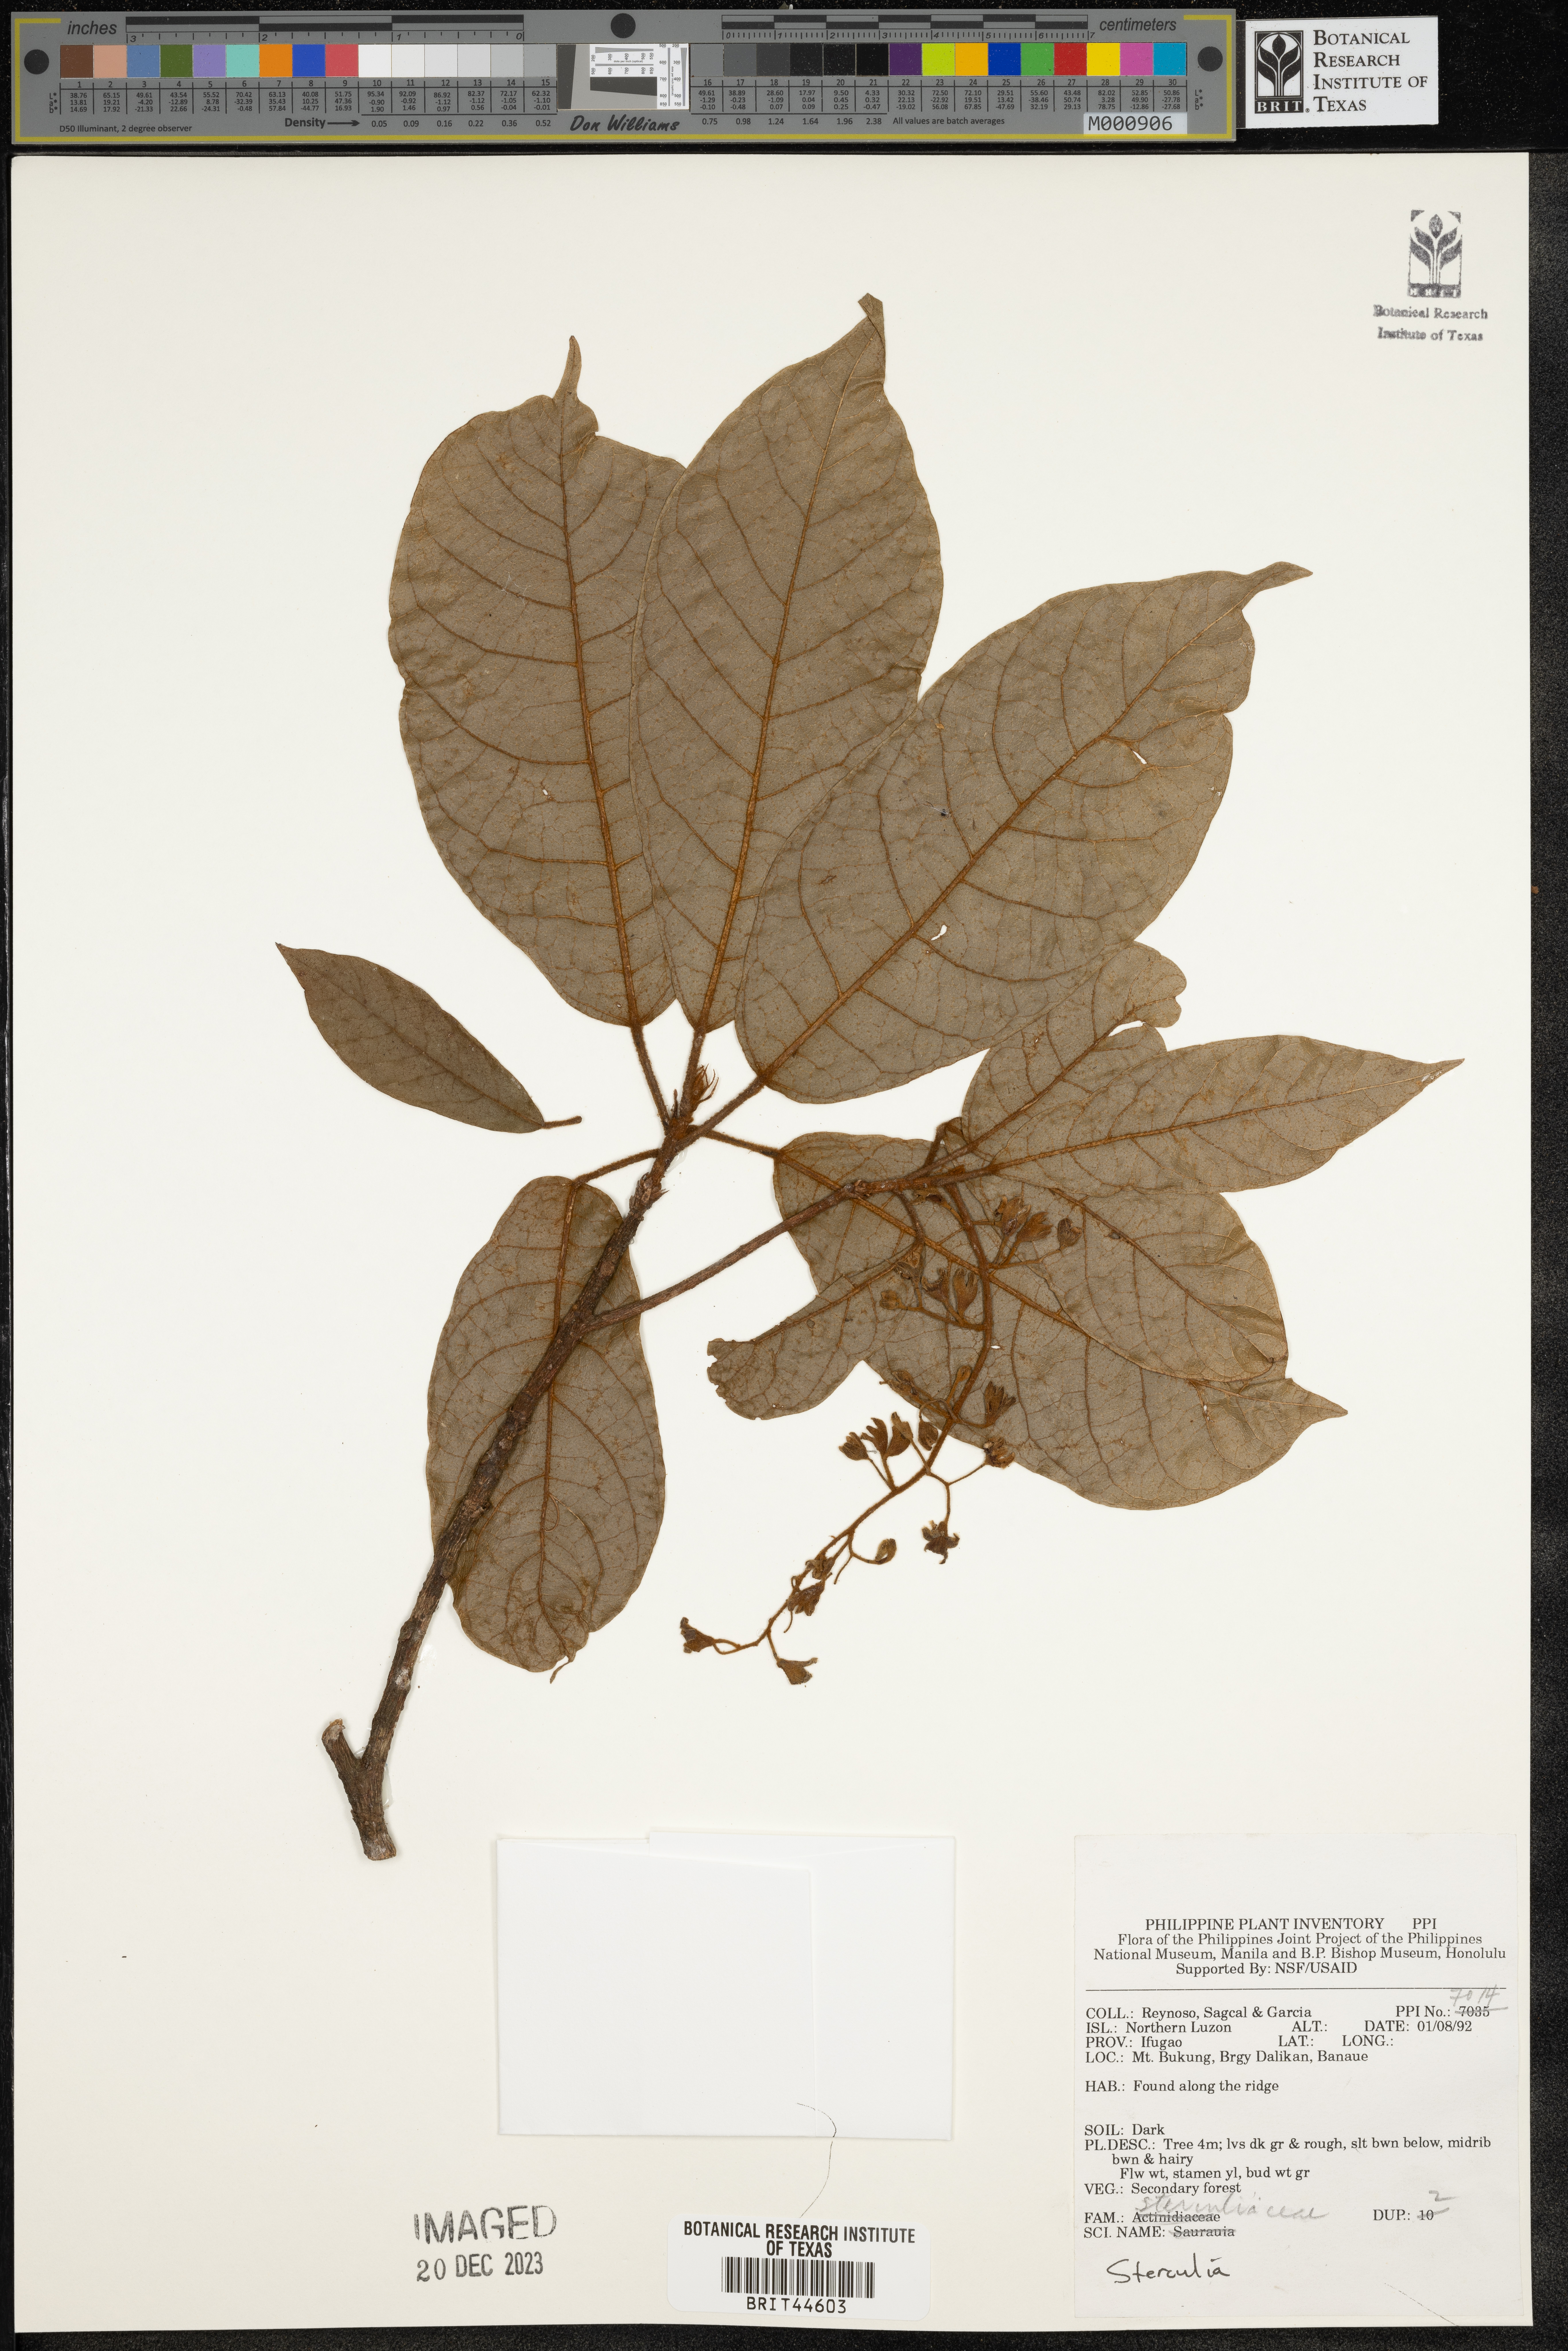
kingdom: Plantae
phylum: Tracheophyta
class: Magnoliopsida
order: Malvales
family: Malvaceae
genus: Sterculia
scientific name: Sterculia
